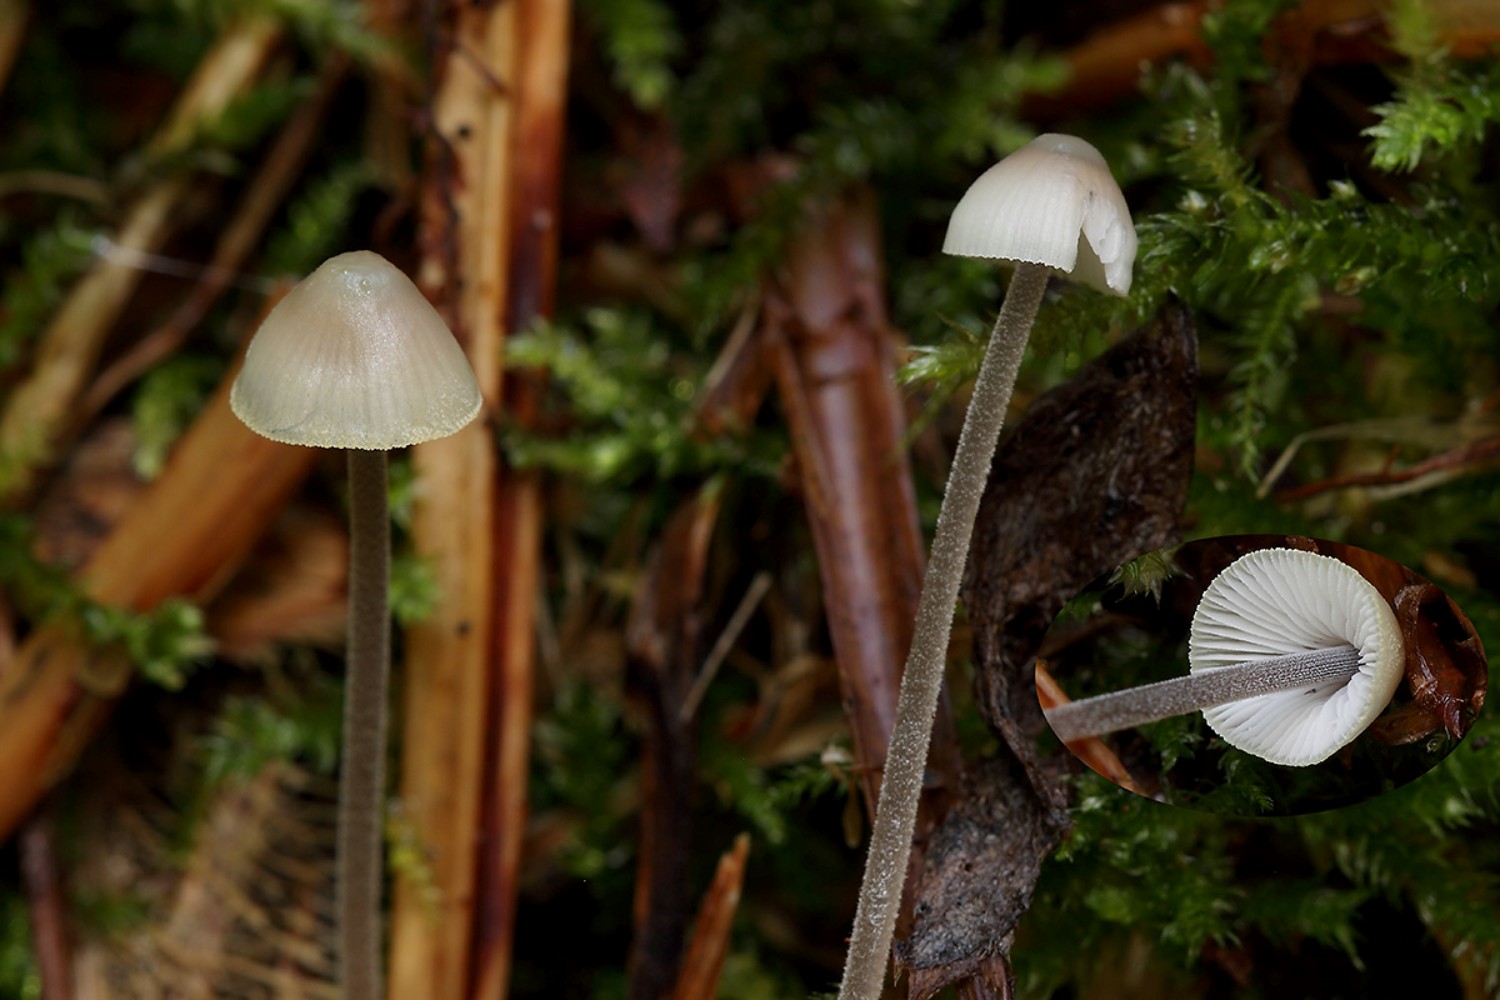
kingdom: Fungi
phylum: Basidiomycota
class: Agaricomycetes
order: Agaricales
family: Mycenaceae
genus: Mycena
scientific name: Mycena amicta
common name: iris-huesvamp
